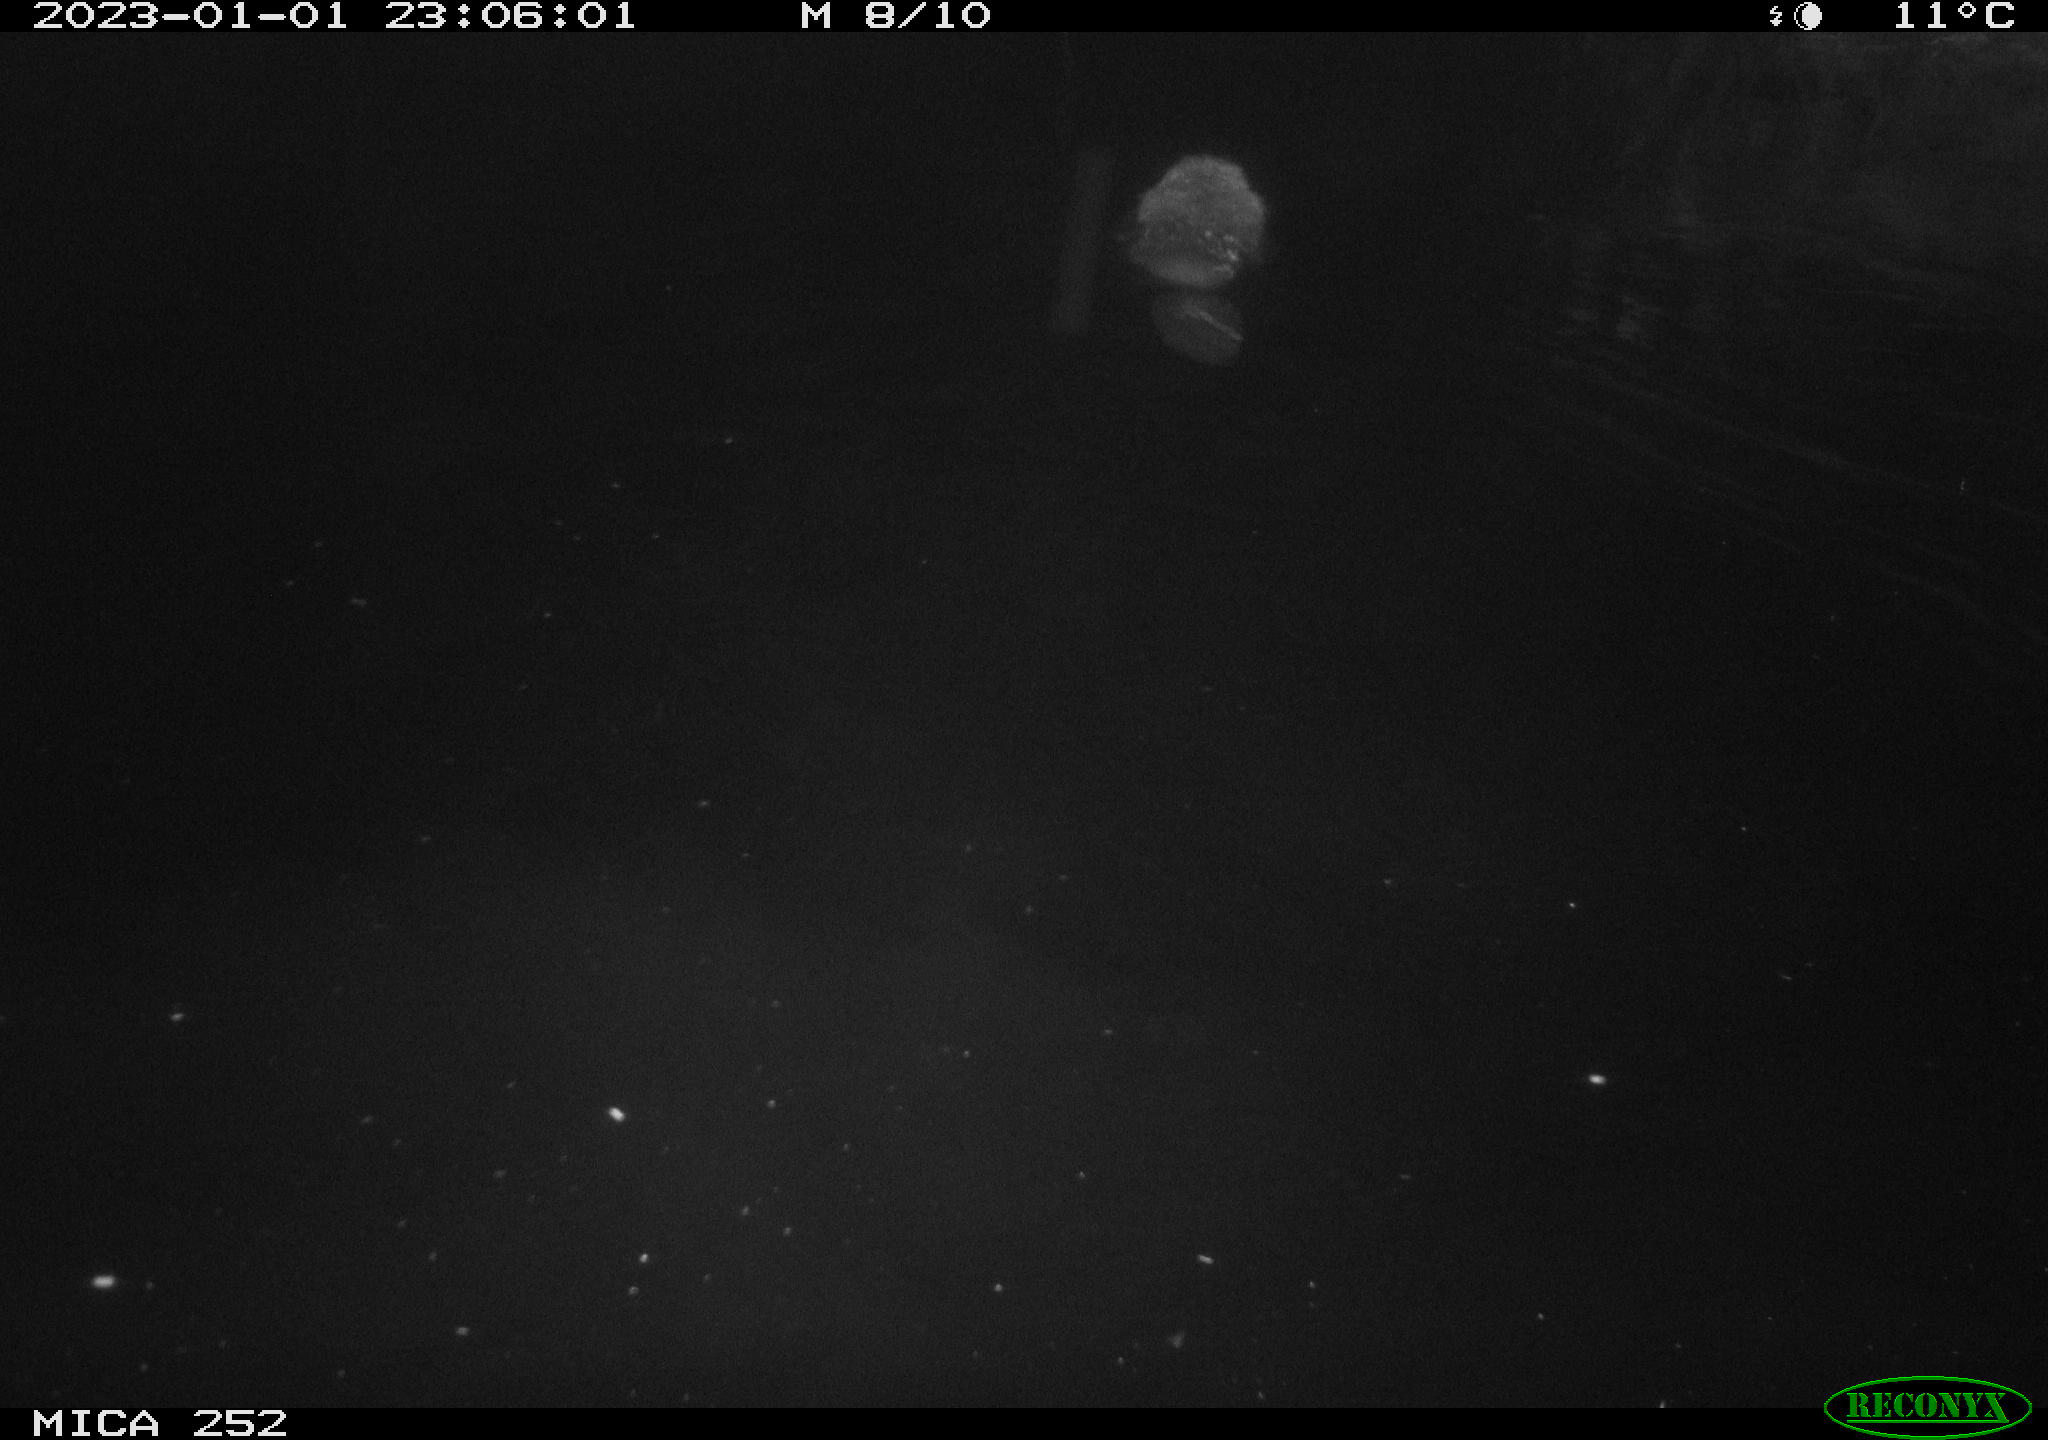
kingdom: Animalia
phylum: Chordata
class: Mammalia
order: Rodentia
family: Castoridae
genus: Castor
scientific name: Castor fiber
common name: Eurasian beaver
